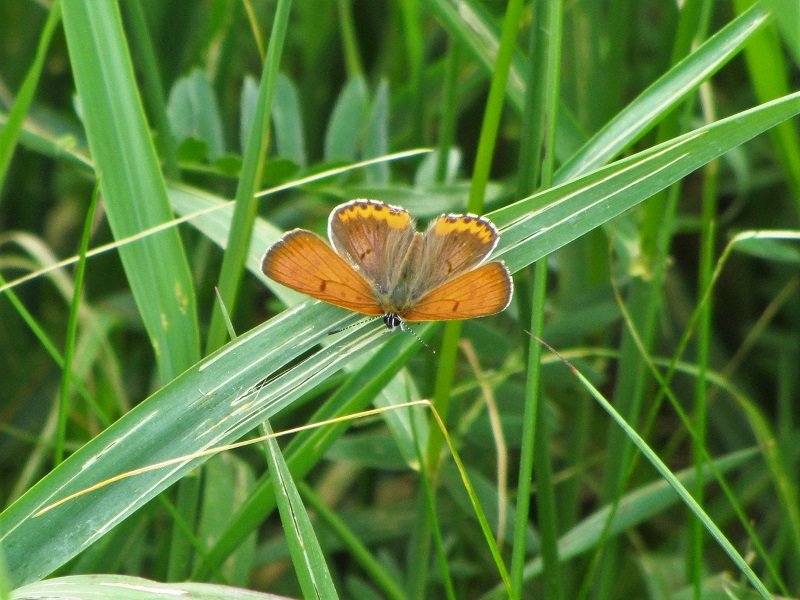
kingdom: Animalia
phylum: Arthropoda
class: Insecta
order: Lepidoptera
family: Sesiidae
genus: Sesia
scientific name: Sesia Lycaena hyllus
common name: Bronze Copper
